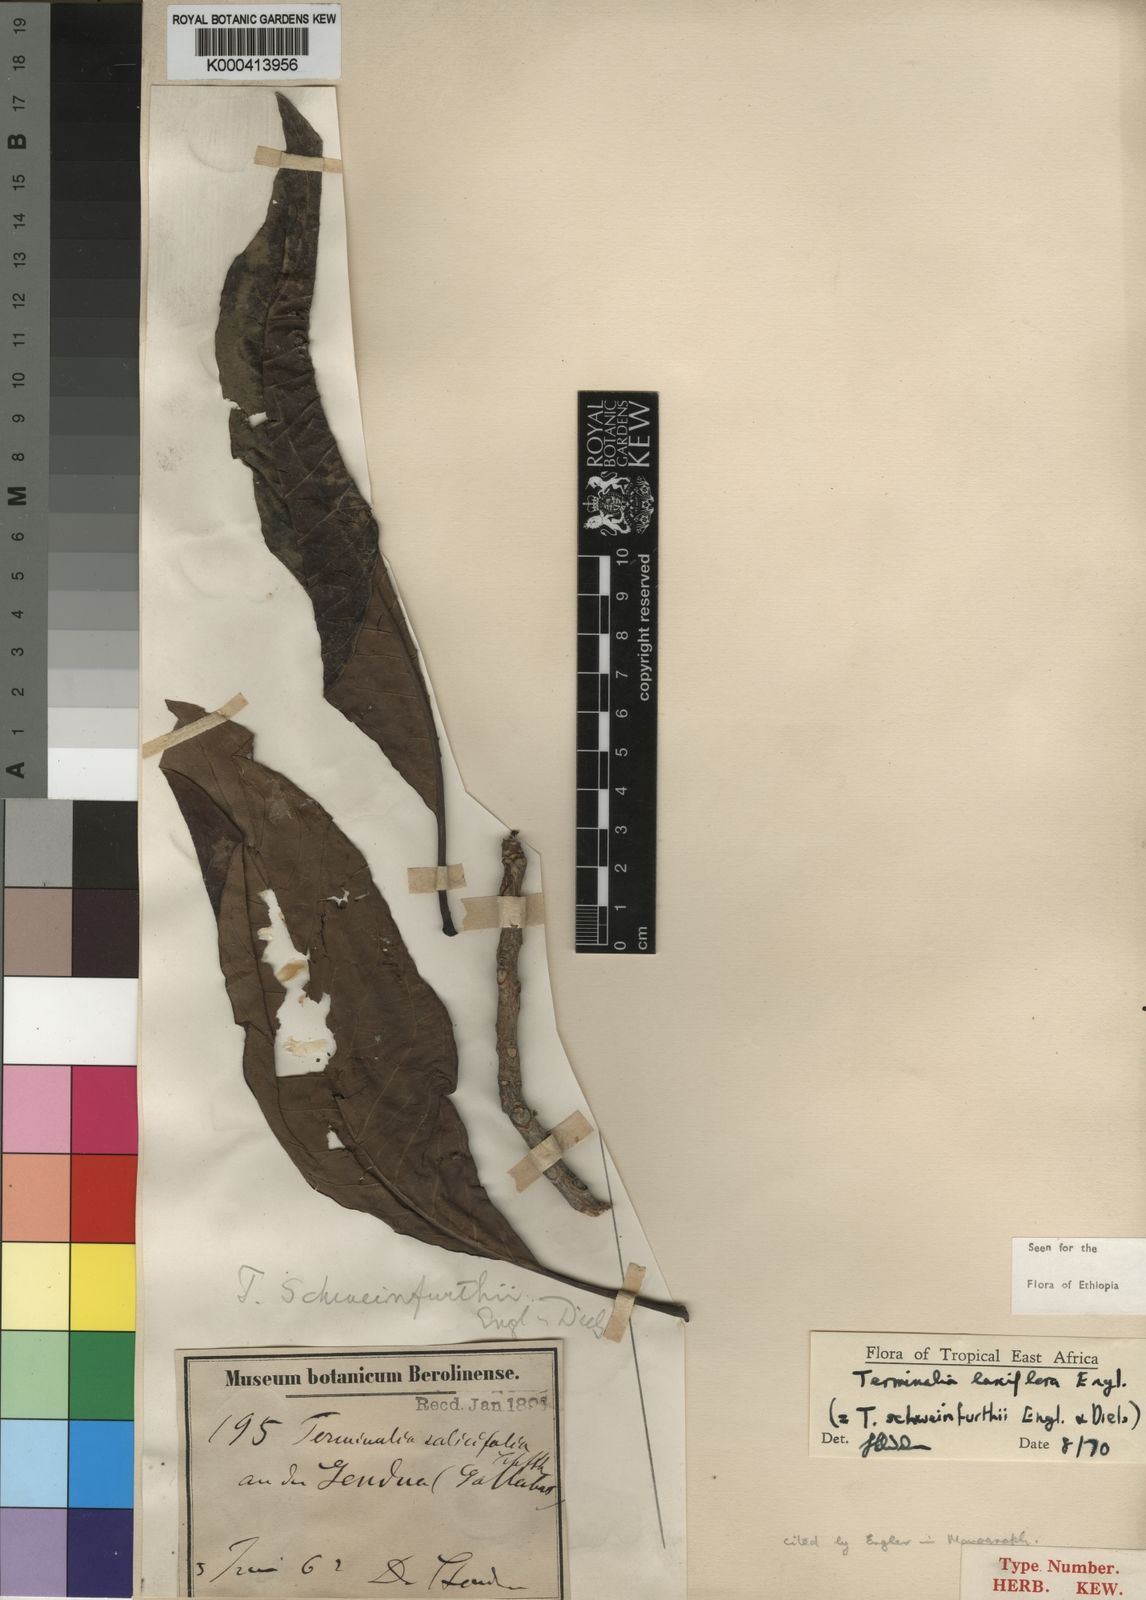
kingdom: Plantae
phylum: Tracheophyta
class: Magnoliopsida
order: Myrtales
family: Combretaceae
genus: Terminalia
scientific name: Terminalia laxiflora
